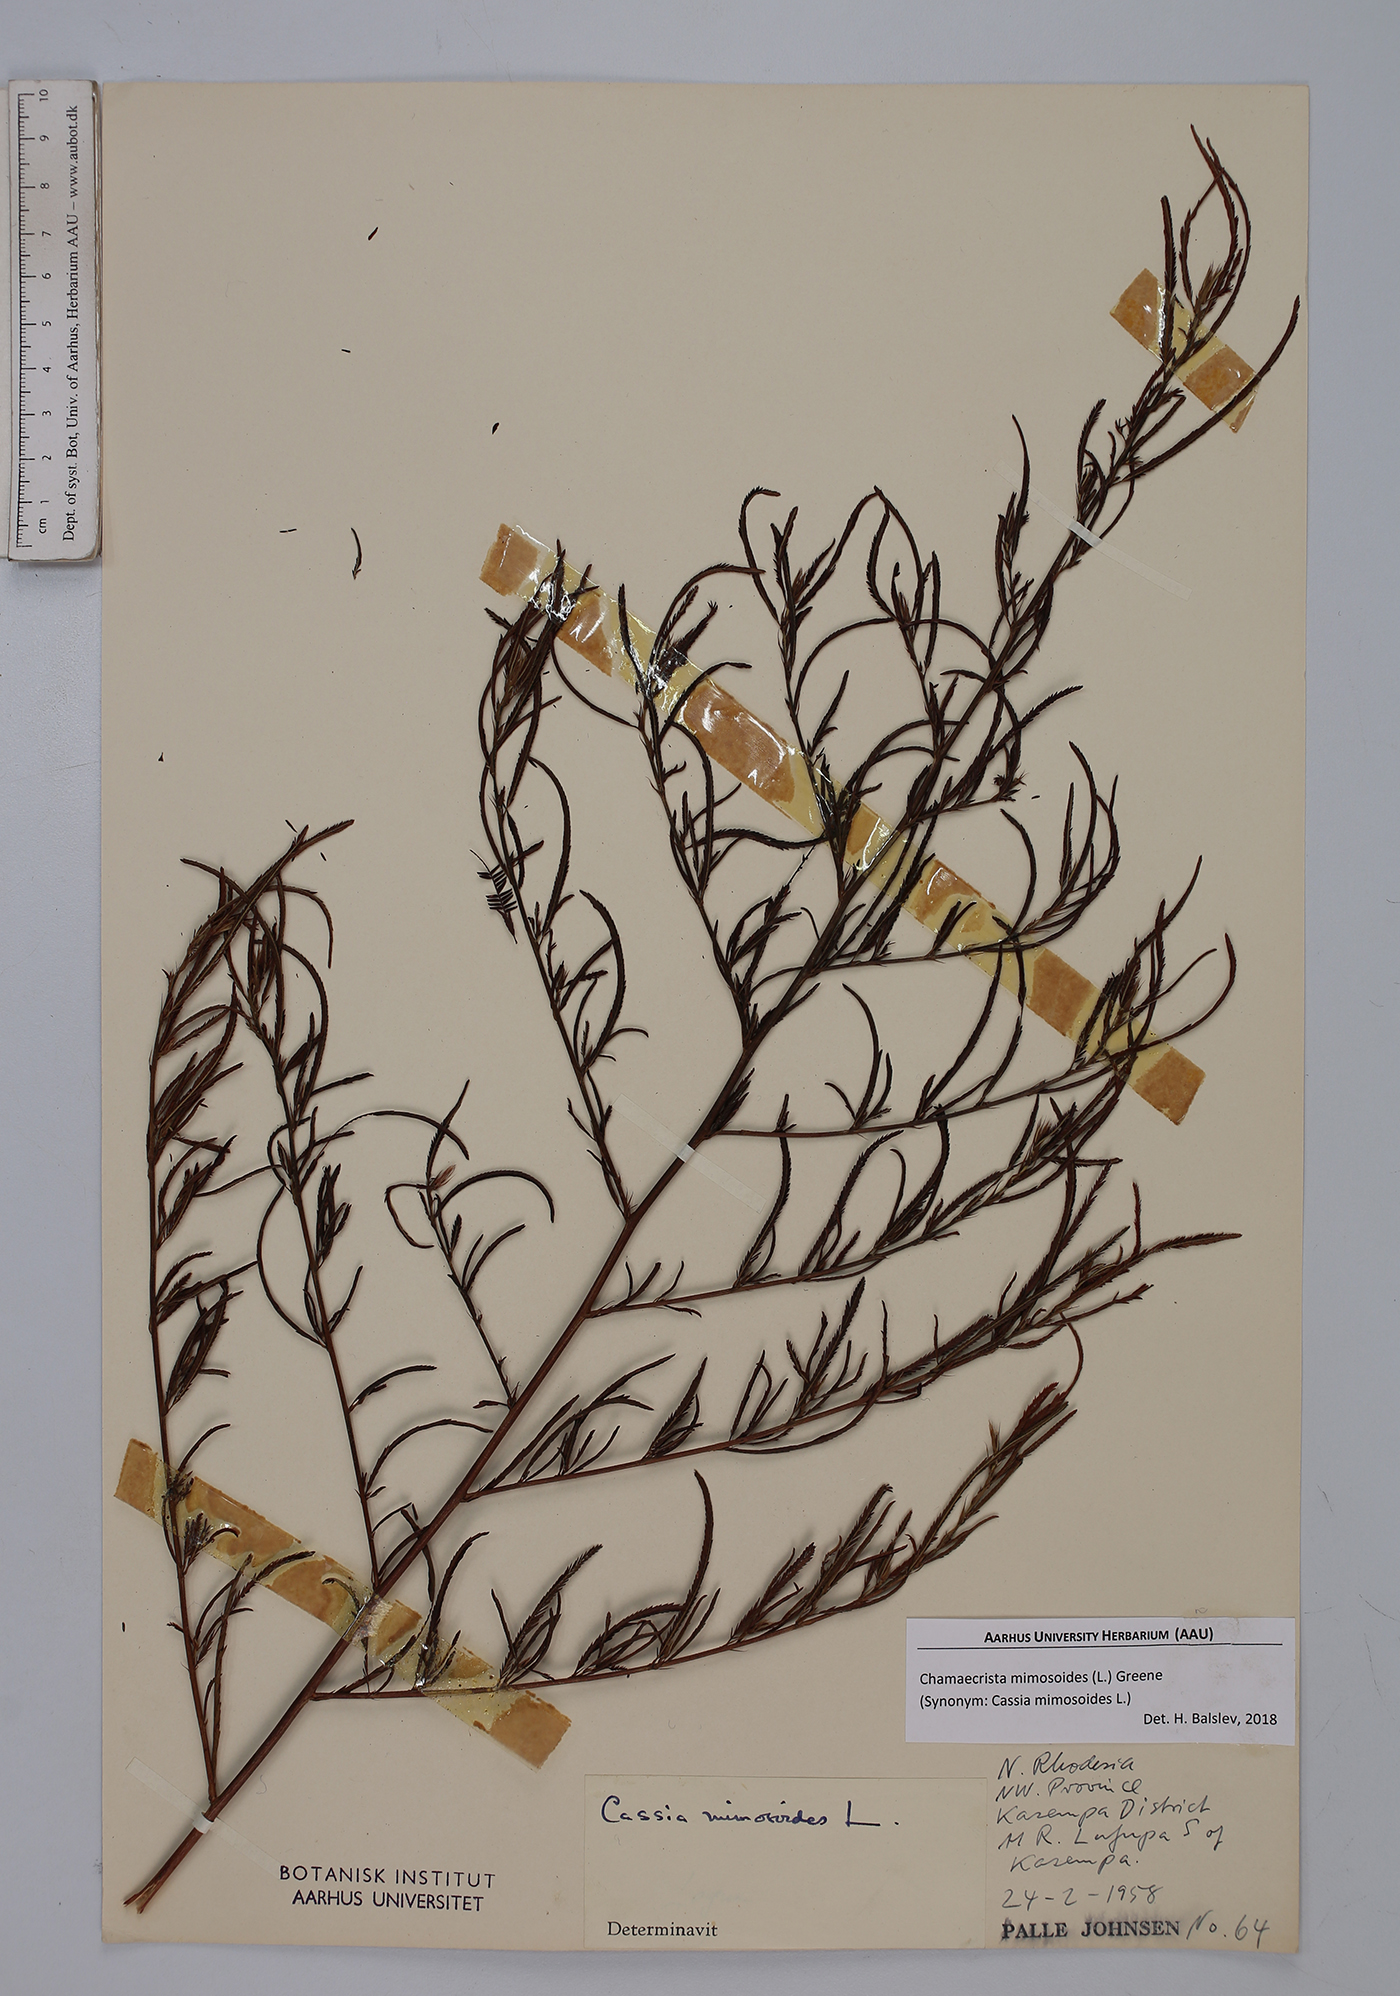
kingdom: Plantae
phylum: Tracheophyta
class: Magnoliopsida
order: Fabales
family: Fabaceae
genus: Chamaecrista
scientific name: Chamaecrista mimosoides
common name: Fish-bone cassia
